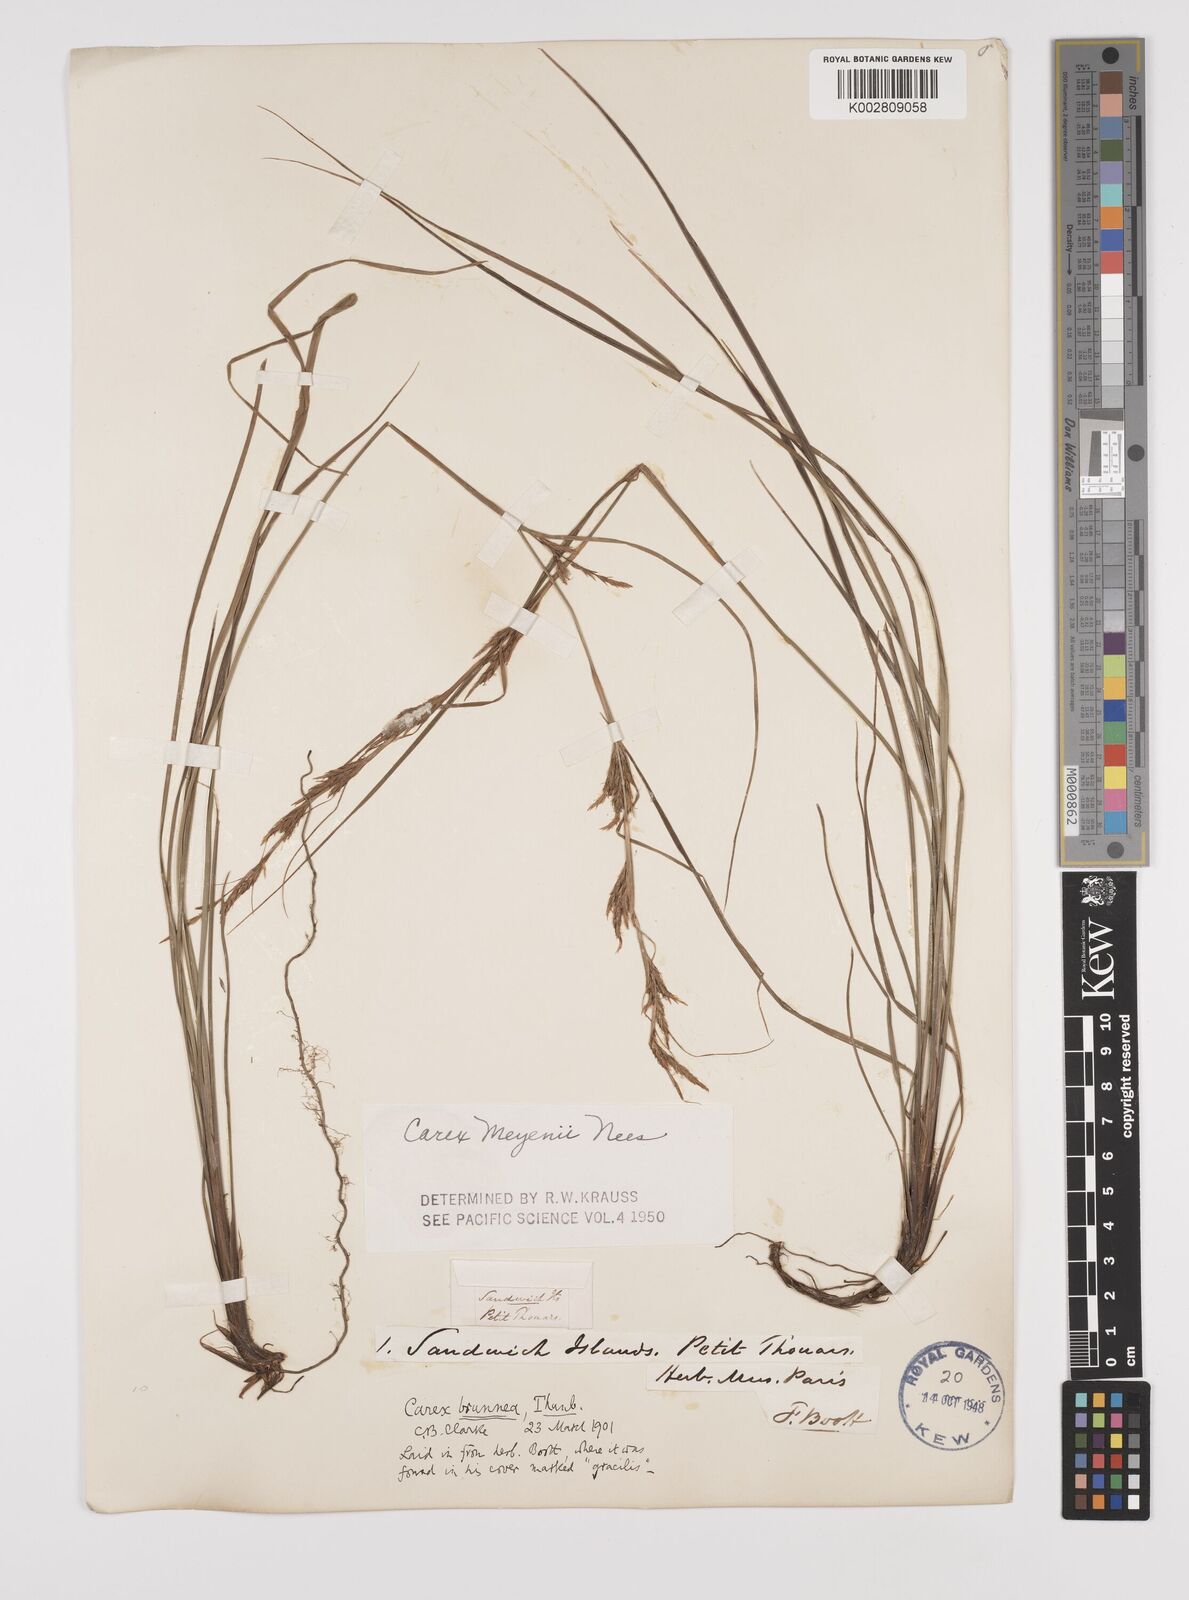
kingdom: Plantae
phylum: Tracheophyta
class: Liliopsida
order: Poales
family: Cyperaceae
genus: Carex
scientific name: Carex brunnea
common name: Greater brown sedge
